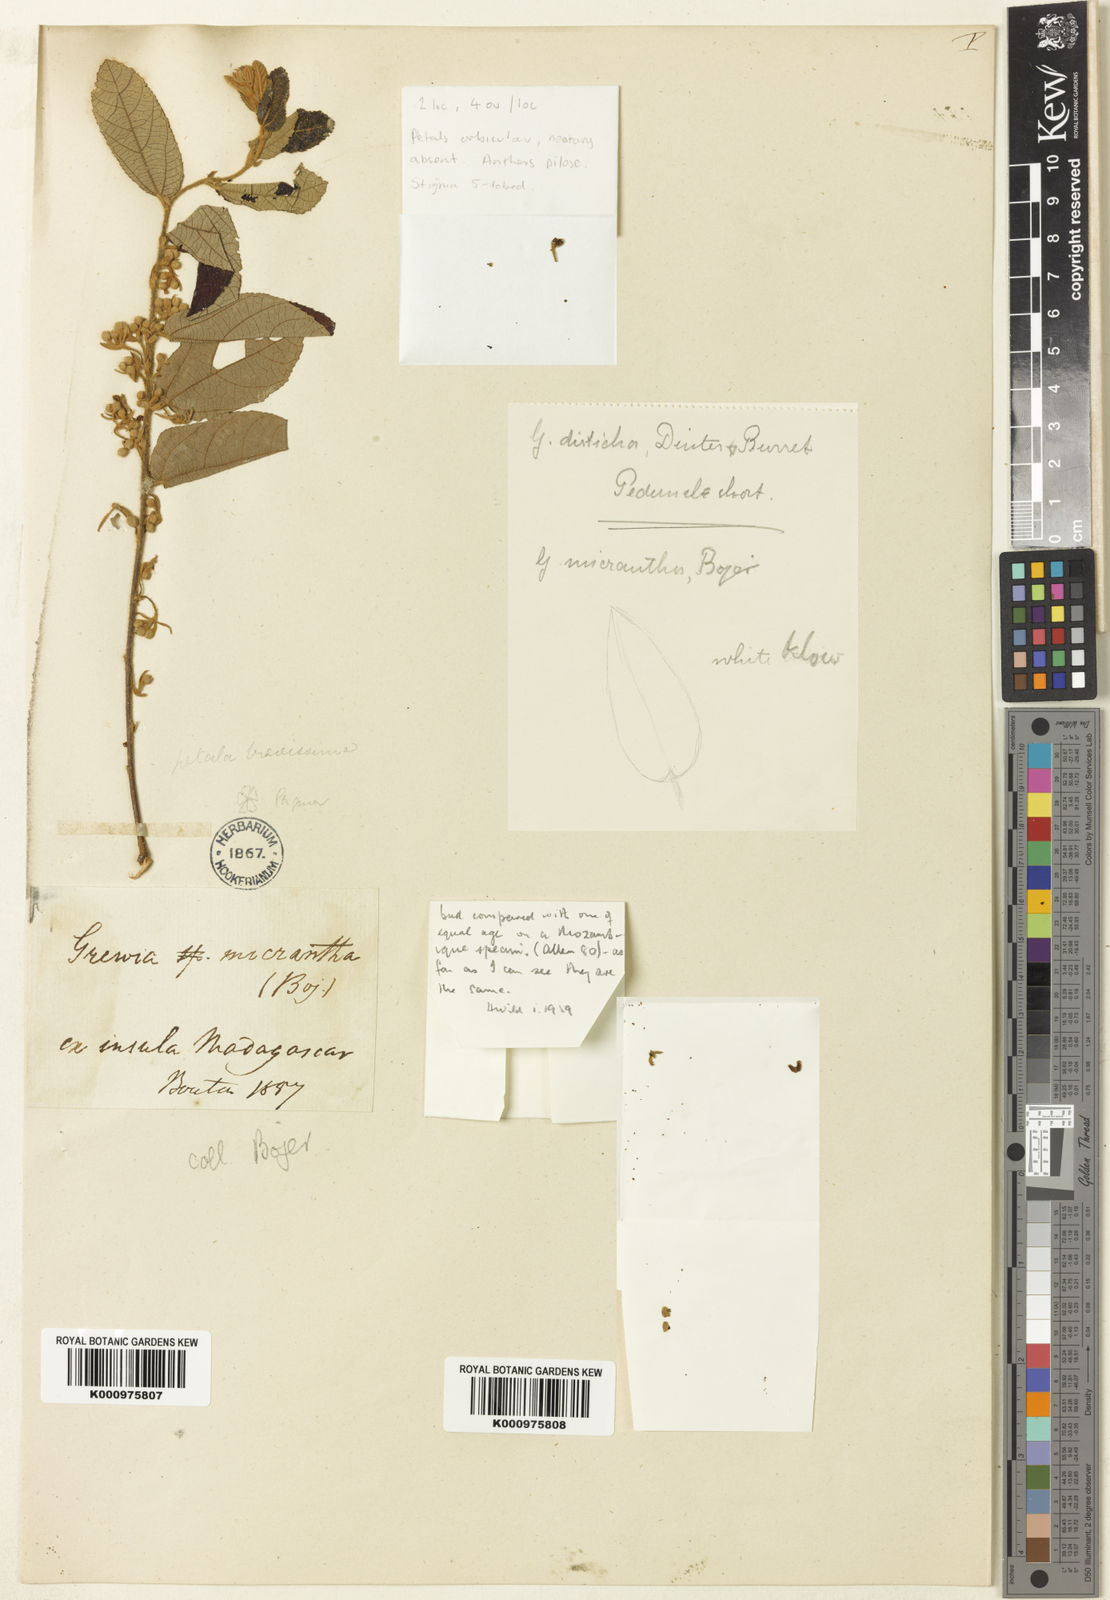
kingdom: Plantae
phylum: Tracheophyta
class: Magnoliopsida
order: Malvales
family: Malvaceae
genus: Grewia
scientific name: Grewia woodiana
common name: Golden fruit raisin
